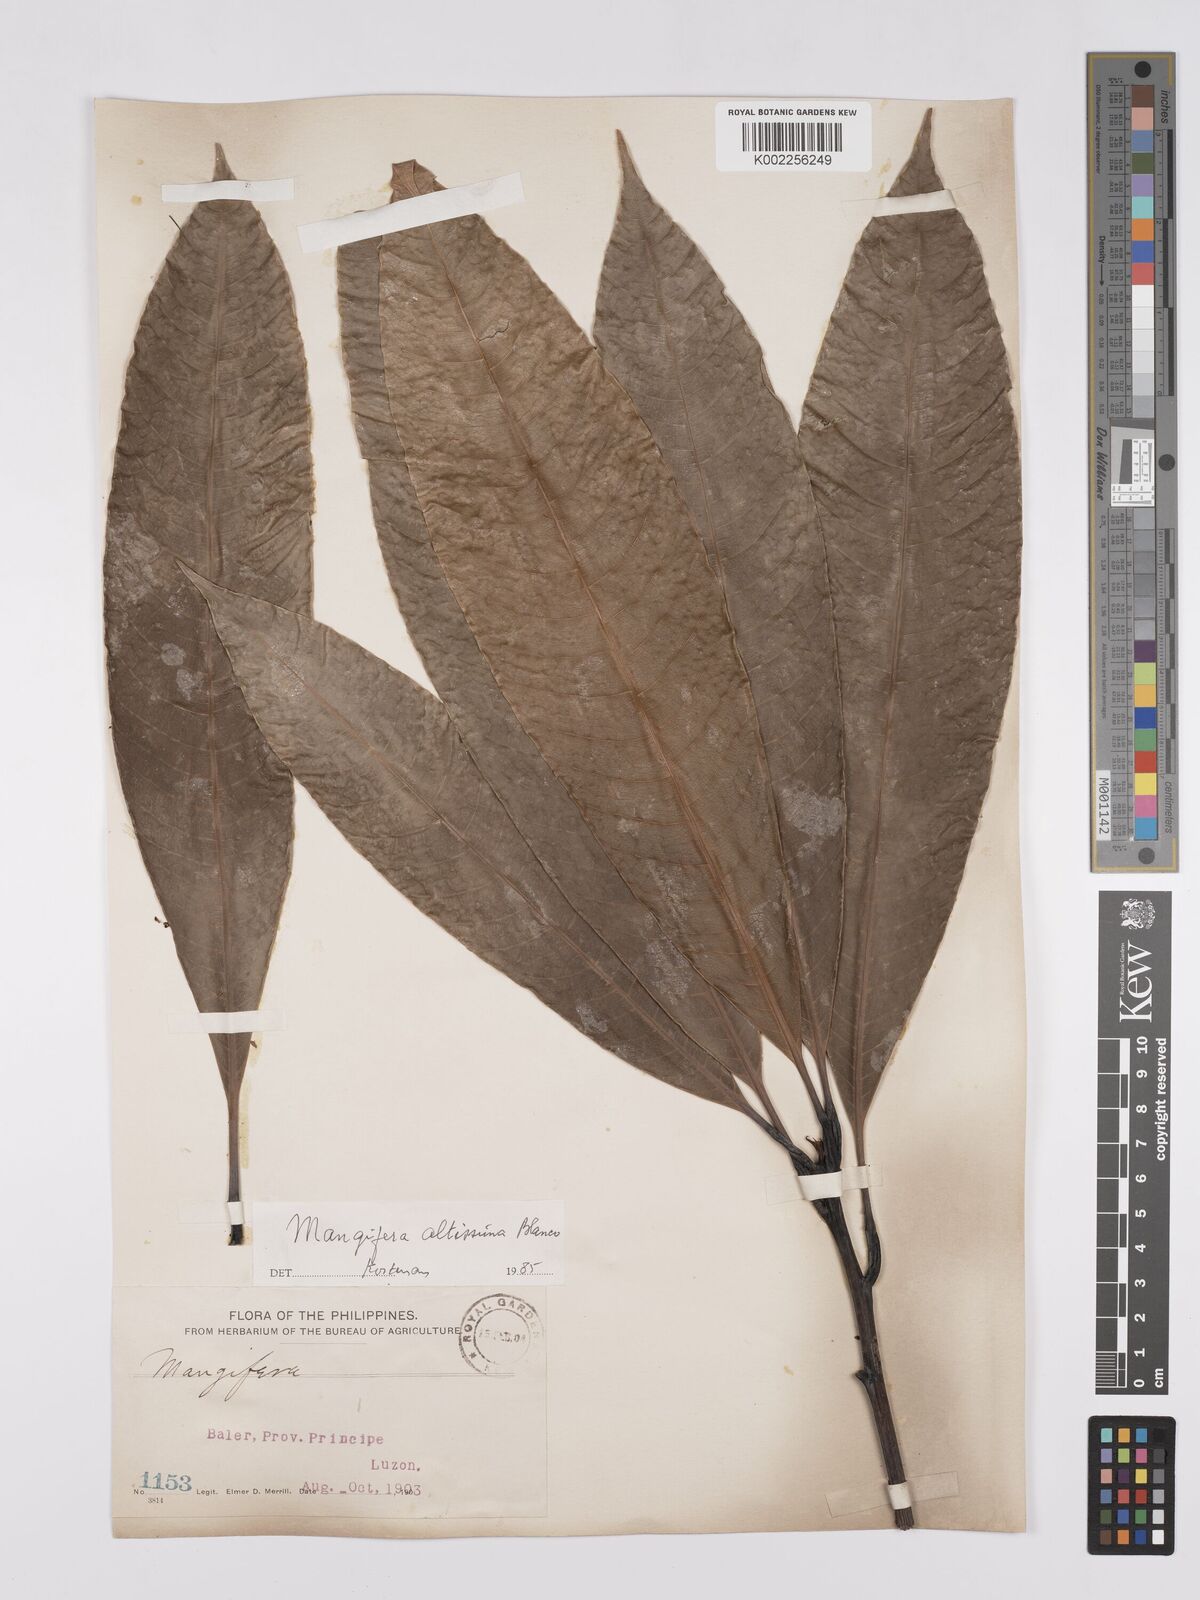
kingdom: Plantae
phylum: Tracheophyta
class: Magnoliopsida
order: Sapindales
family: Anacardiaceae
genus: Mangifera
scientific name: Mangifera altissima
